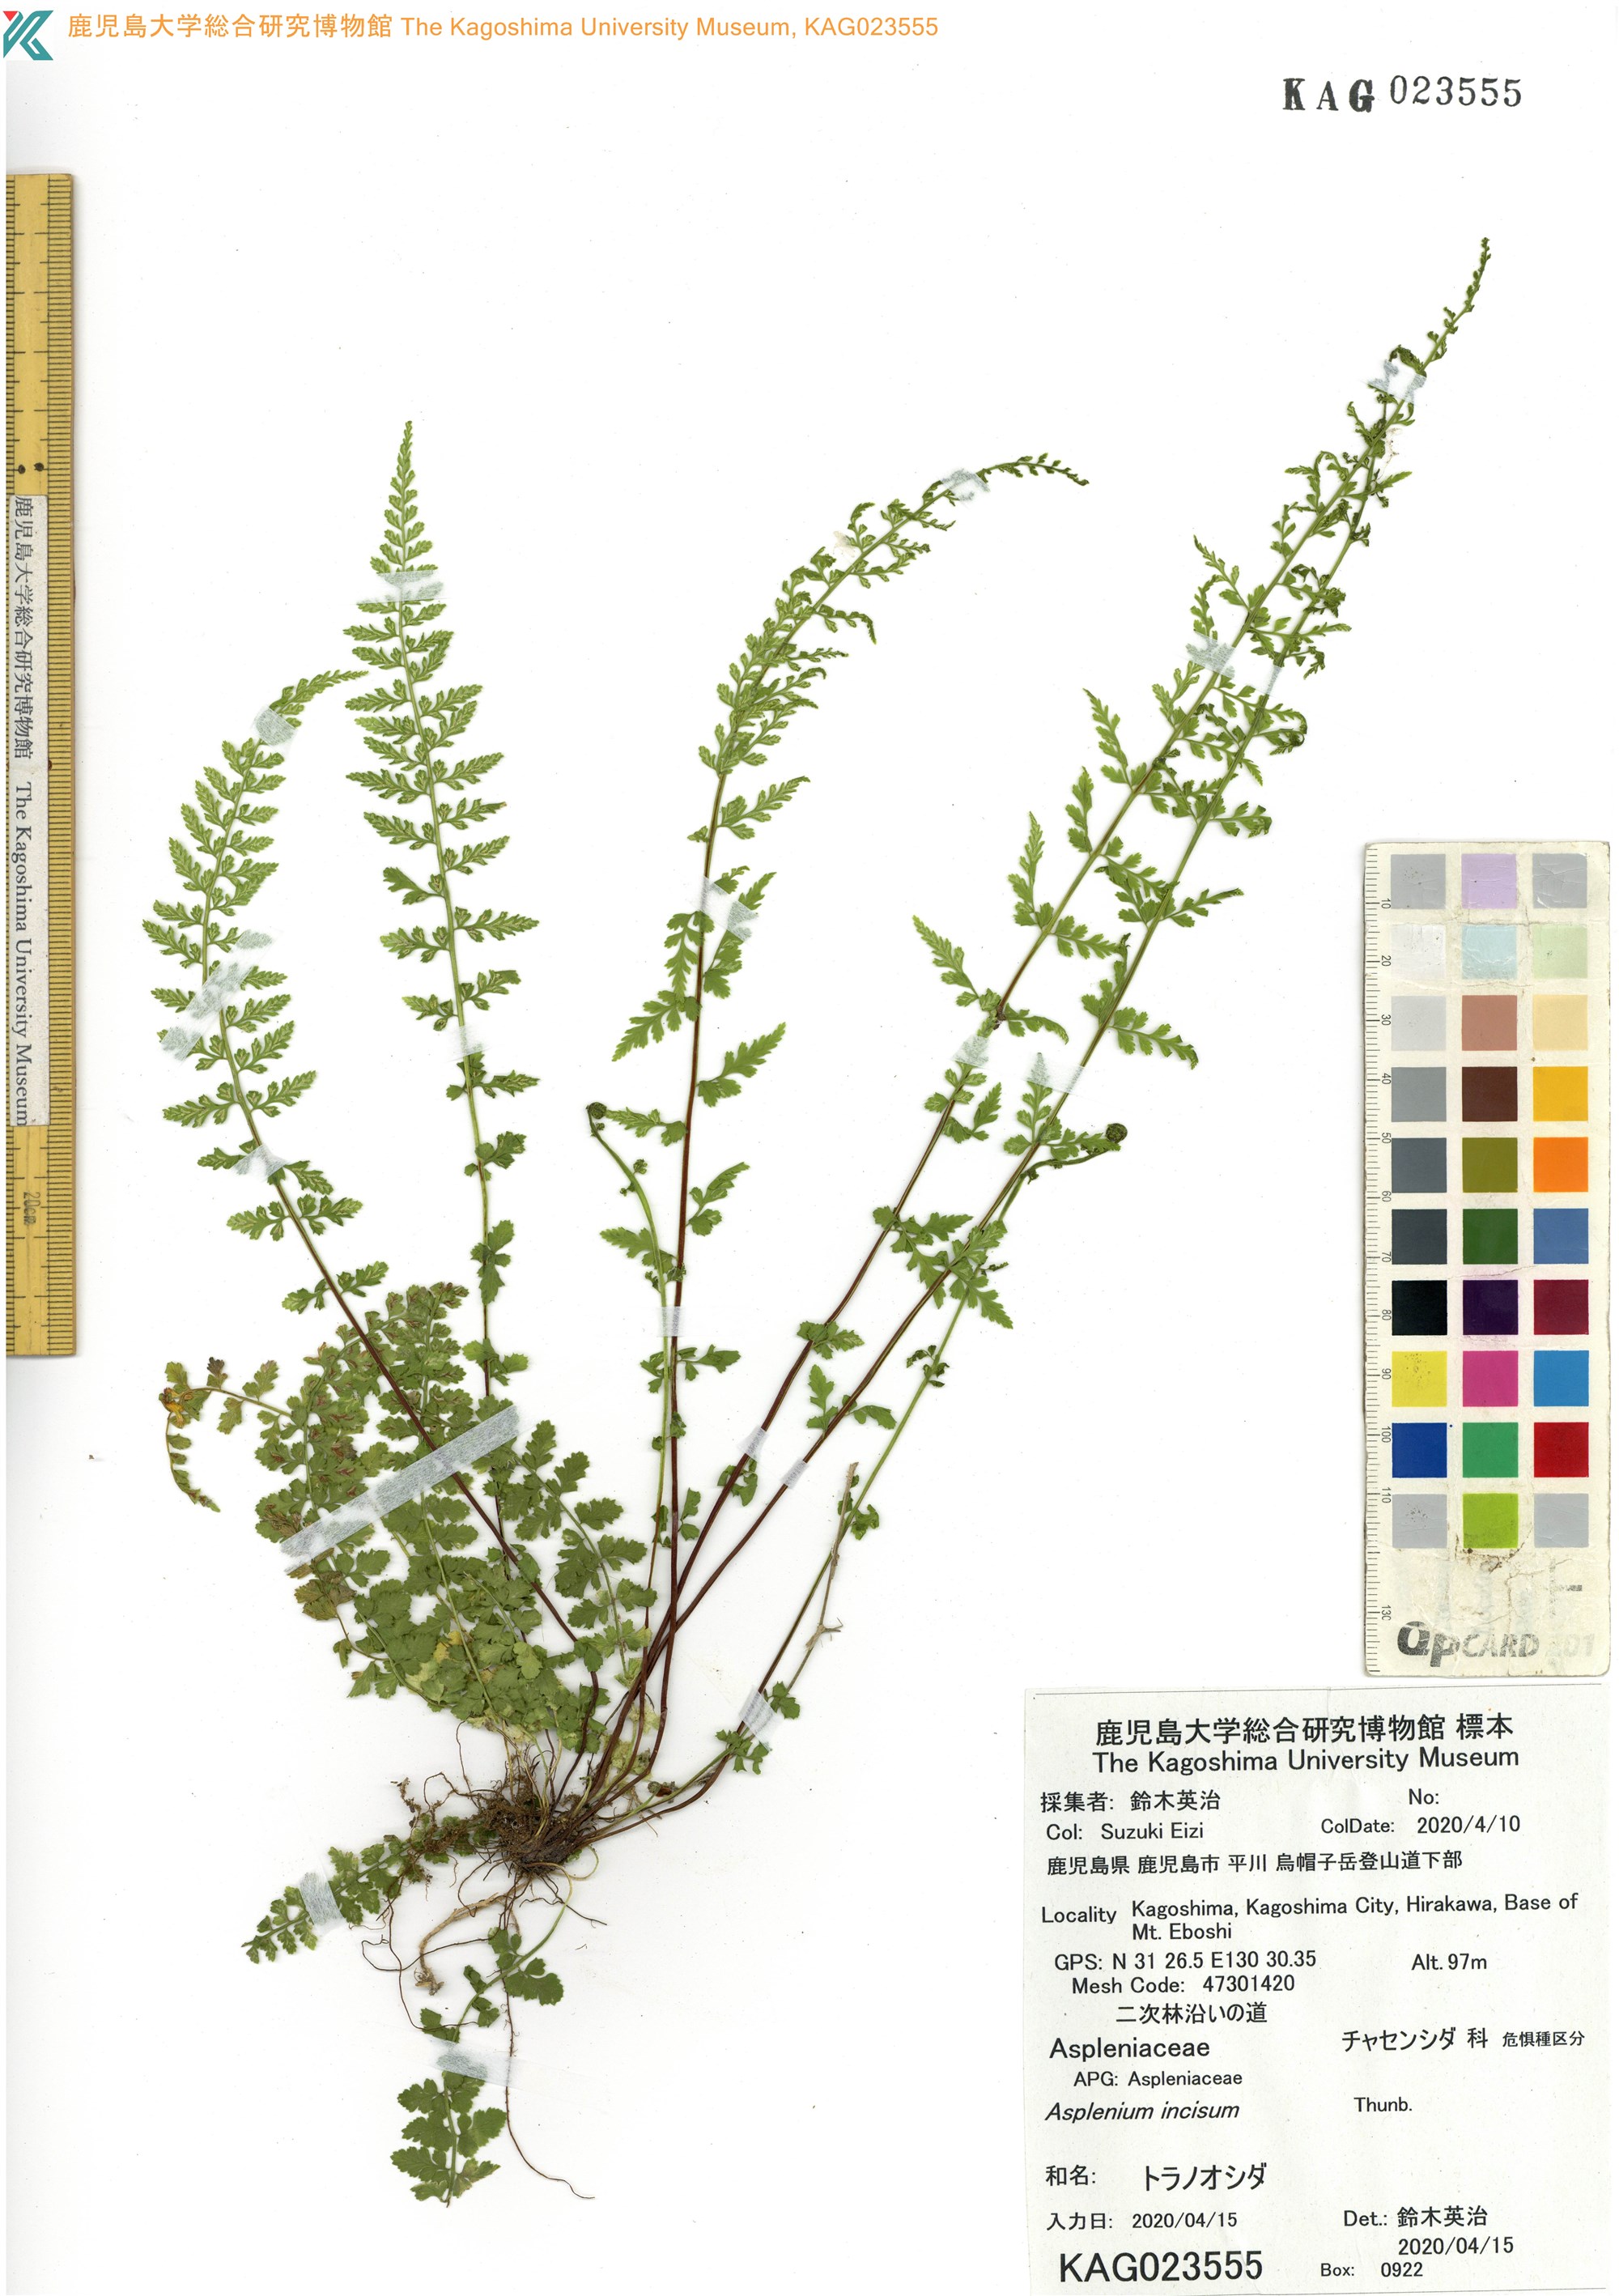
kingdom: Plantae
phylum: Tracheophyta
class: Polypodiopsida
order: Polypodiales
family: Aspleniaceae
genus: Asplenium
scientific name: Asplenium incisum
